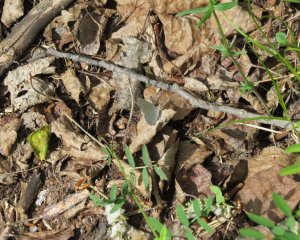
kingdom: Animalia
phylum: Arthropoda
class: Insecta
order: Lepidoptera
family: Lycaenidae
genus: Elkalyce
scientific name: Elkalyce amyntula
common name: Western Tailed-Blue
